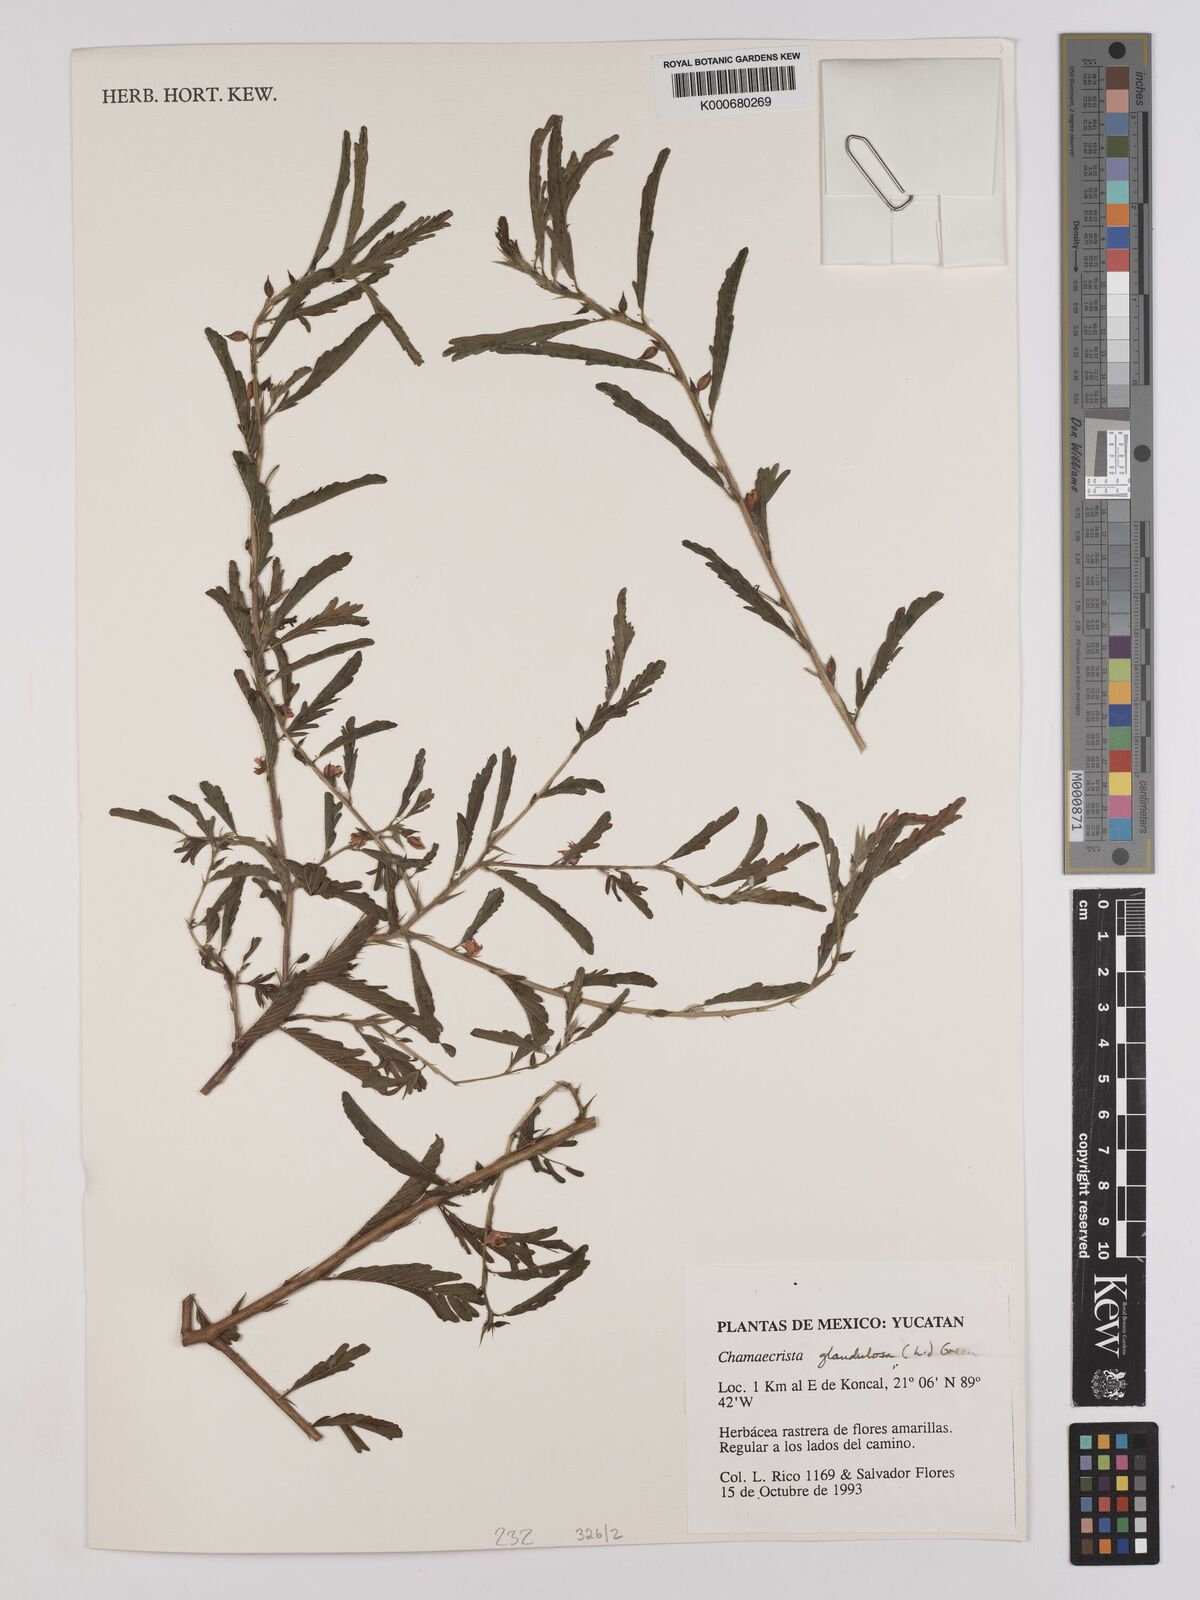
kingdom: Plantae
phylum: Tracheophyta
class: Magnoliopsida
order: Fabales
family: Fabaceae
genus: Chamaecrista
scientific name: Chamaecrista glandulosa
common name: Wild peas
